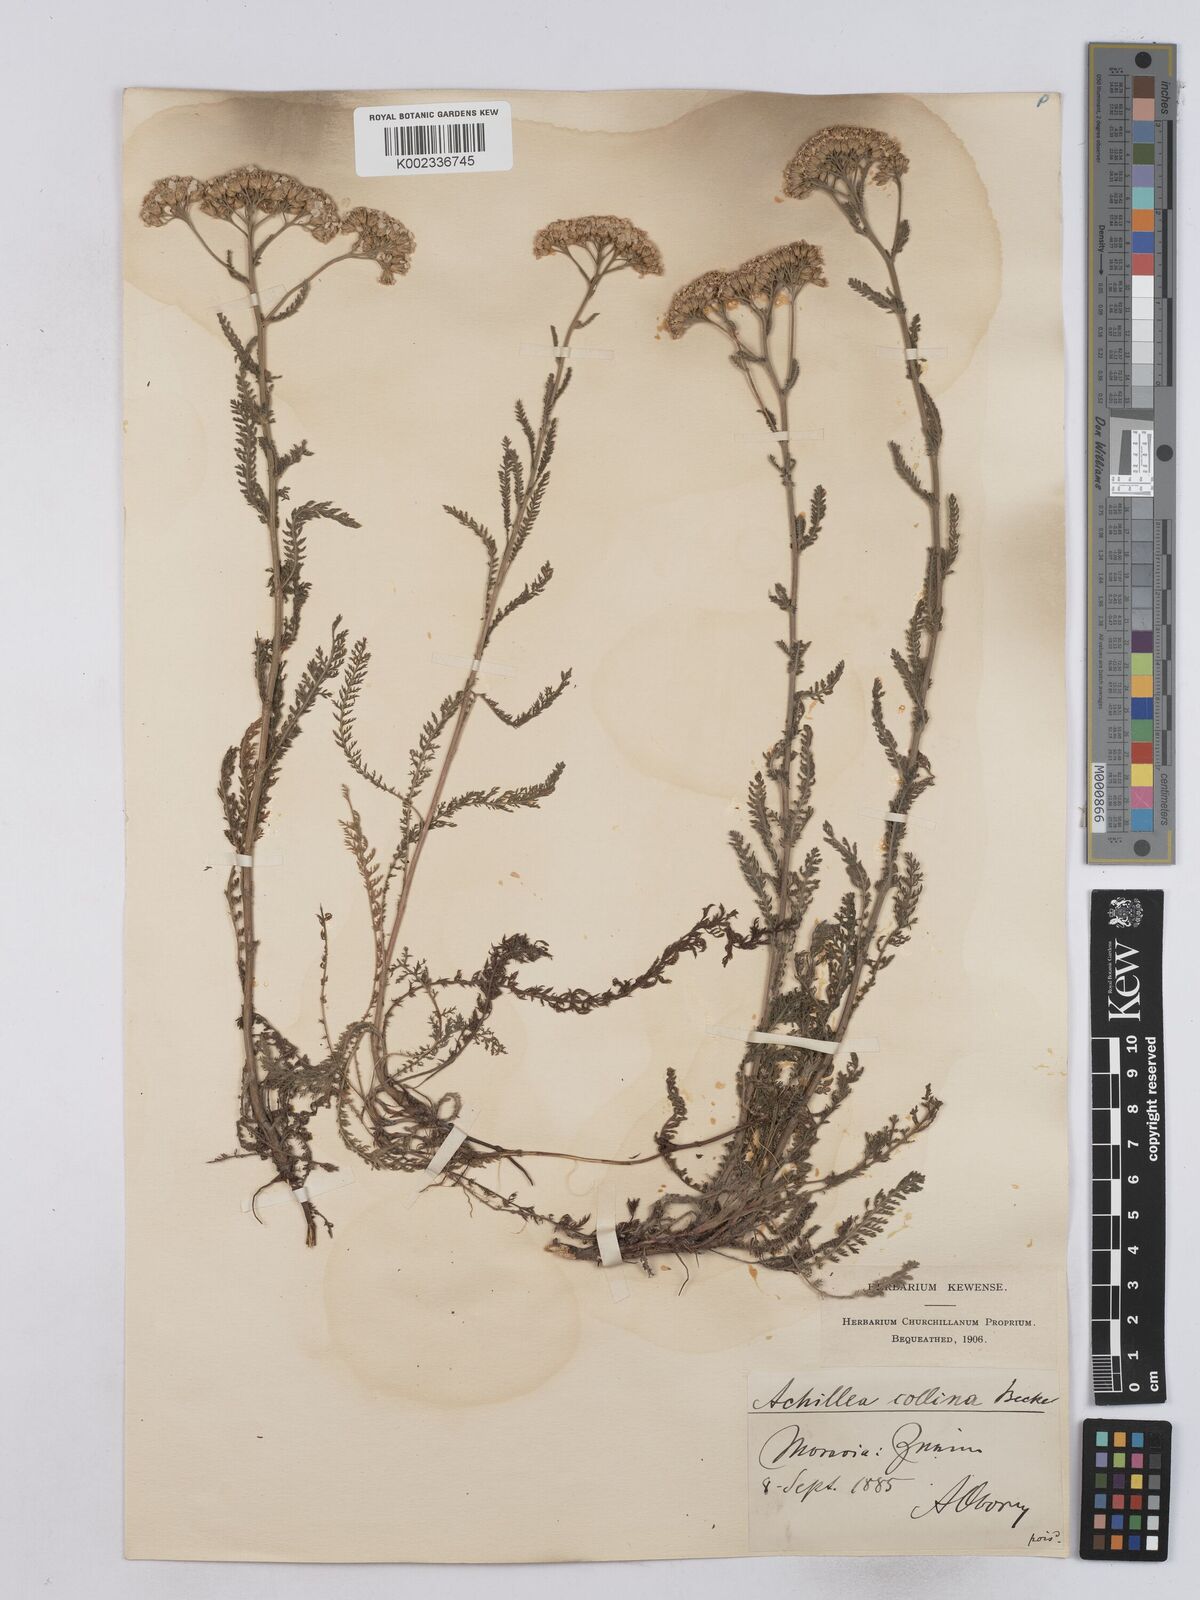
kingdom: Plantae
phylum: Tracheophyta
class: Magnoliopsida
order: Asterales
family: Asteraceae
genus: Achillea
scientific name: Achillea collina
